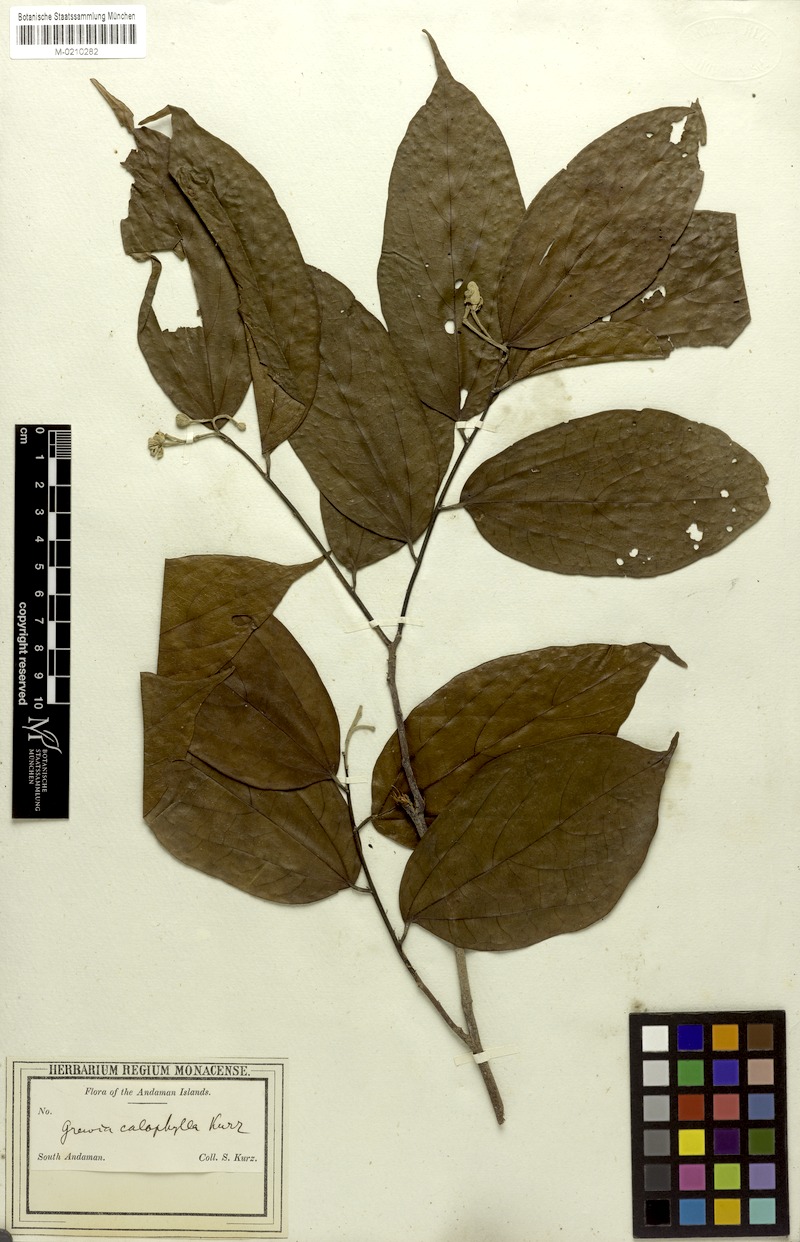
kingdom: Plantae
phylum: Tracheophyta
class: Magnoliopsida
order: Malvales
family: Malvaceae
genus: Microcos
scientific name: Microcos calophylla
